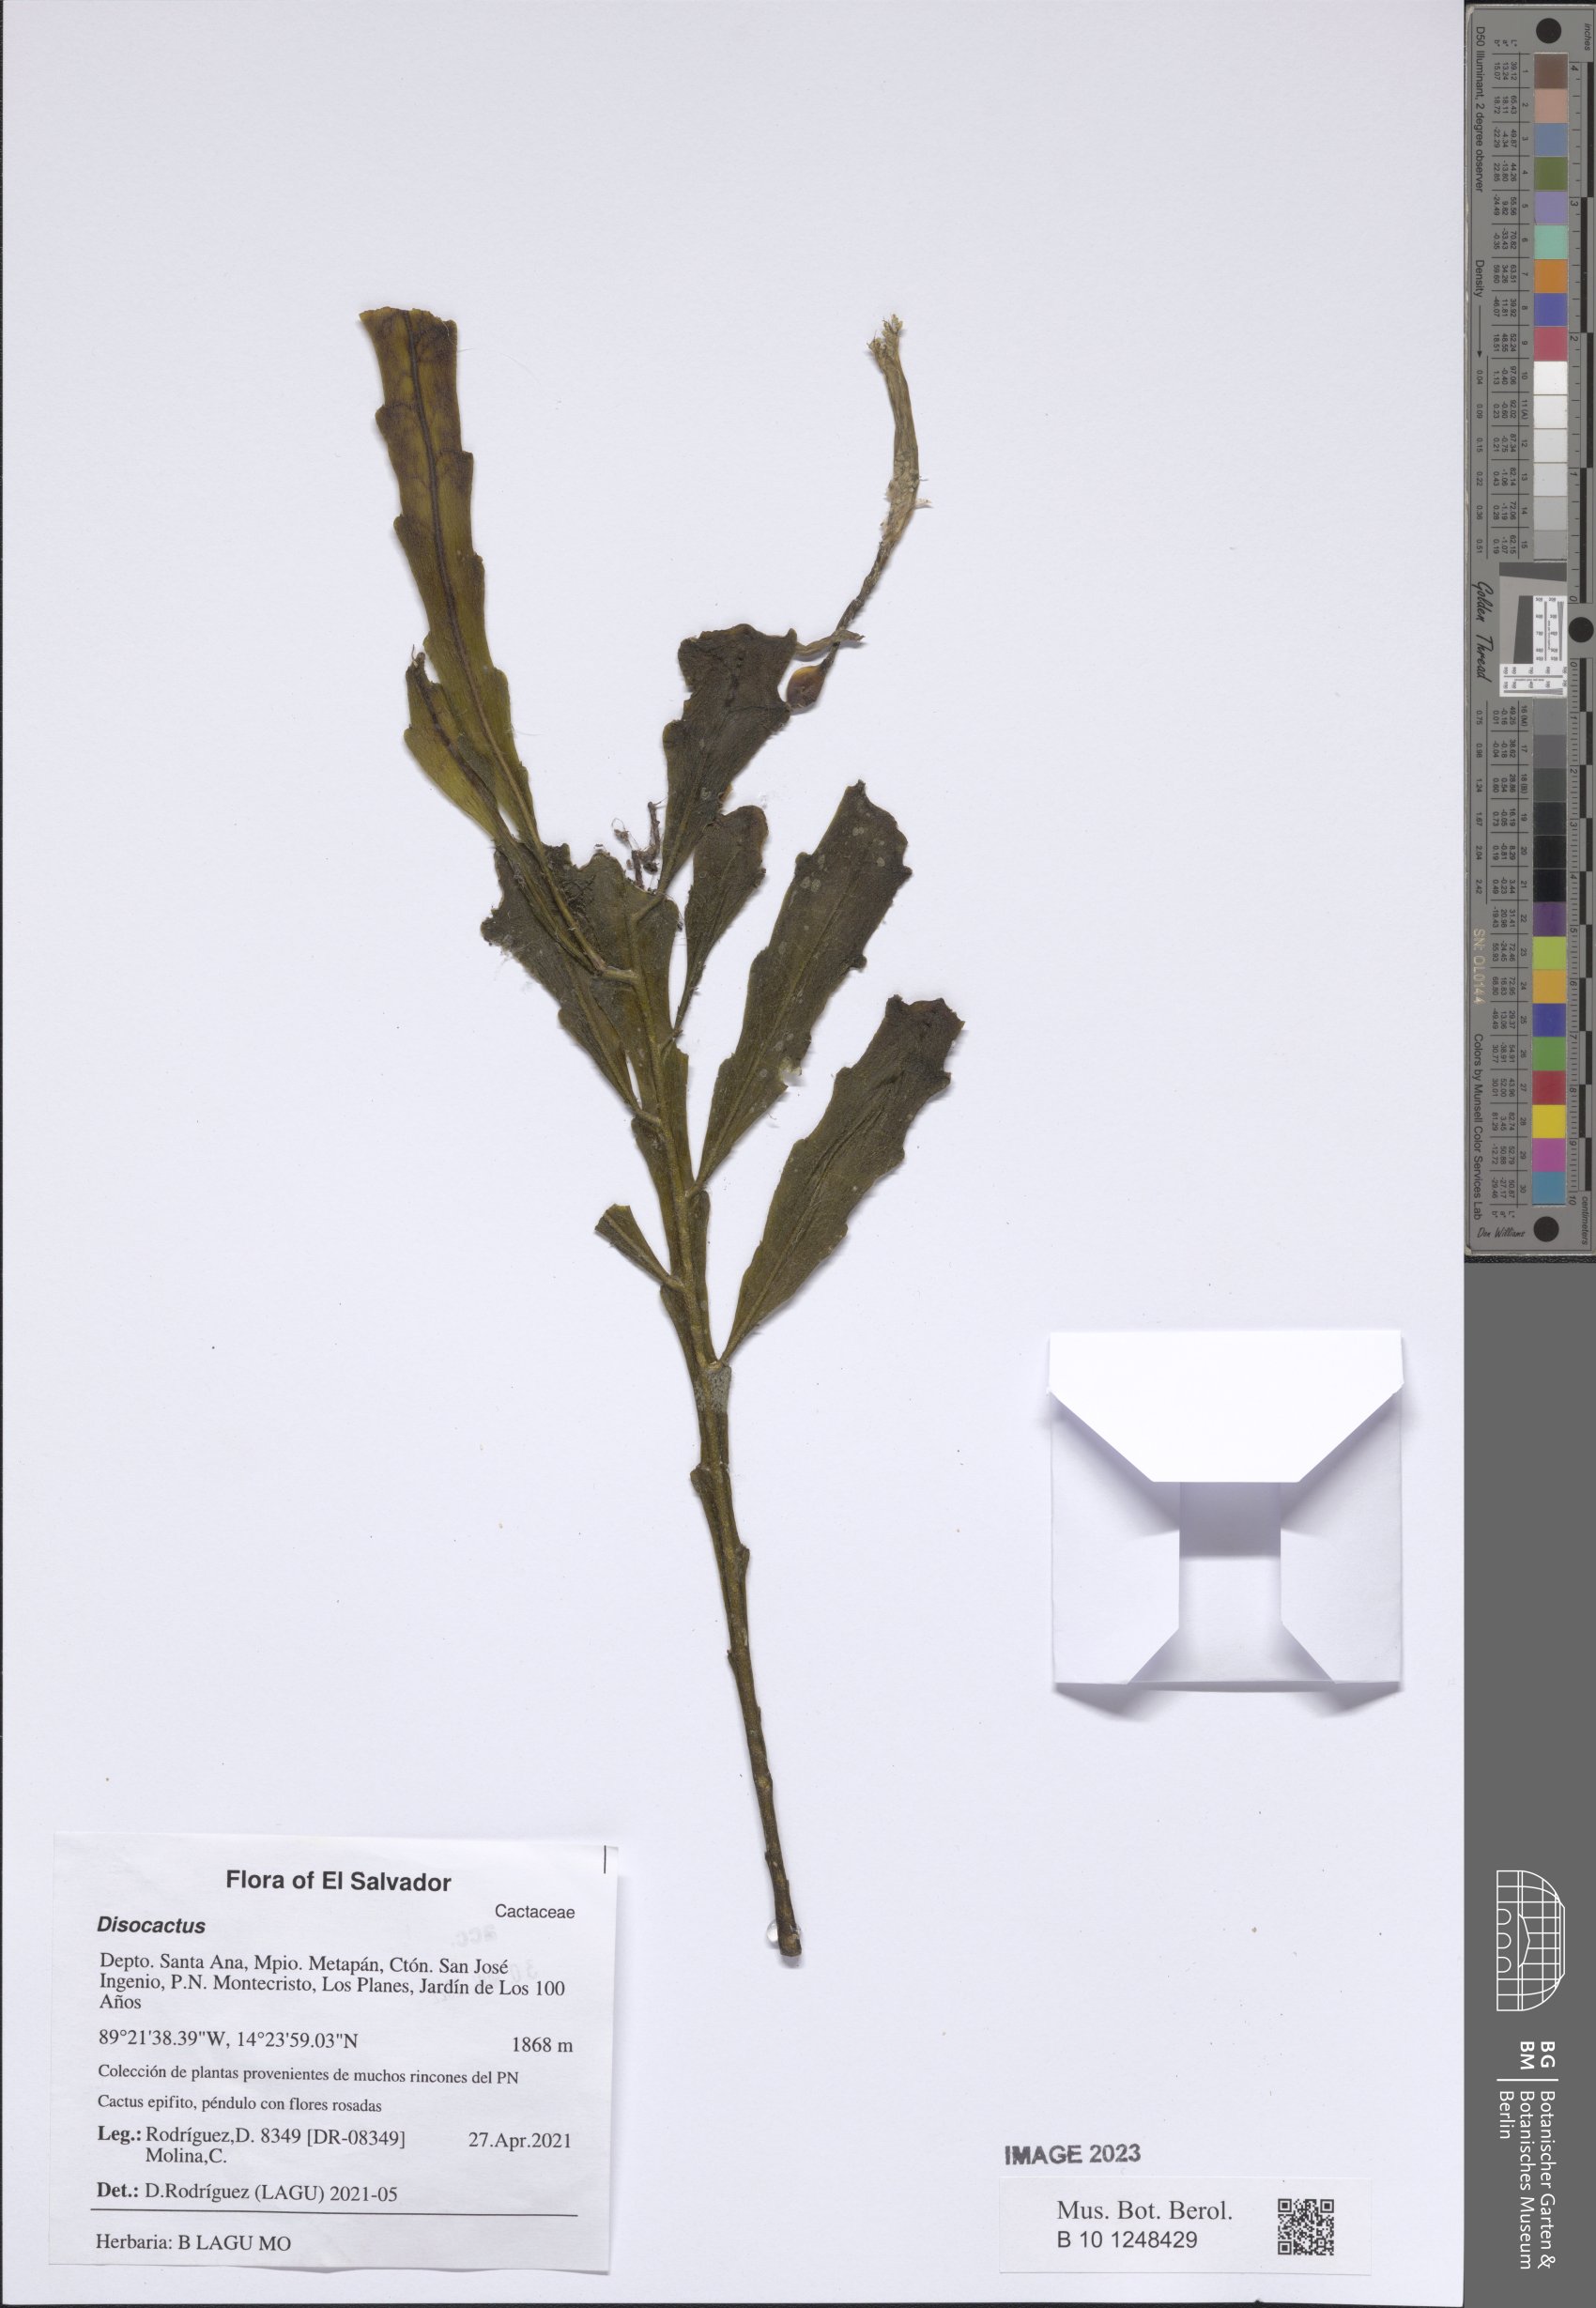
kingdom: Plantae
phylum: Tracheophyta
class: Magnoliopsida
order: Caryophyllales
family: Cactaceae
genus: Disocactus
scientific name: Disocactus salvadorensis
